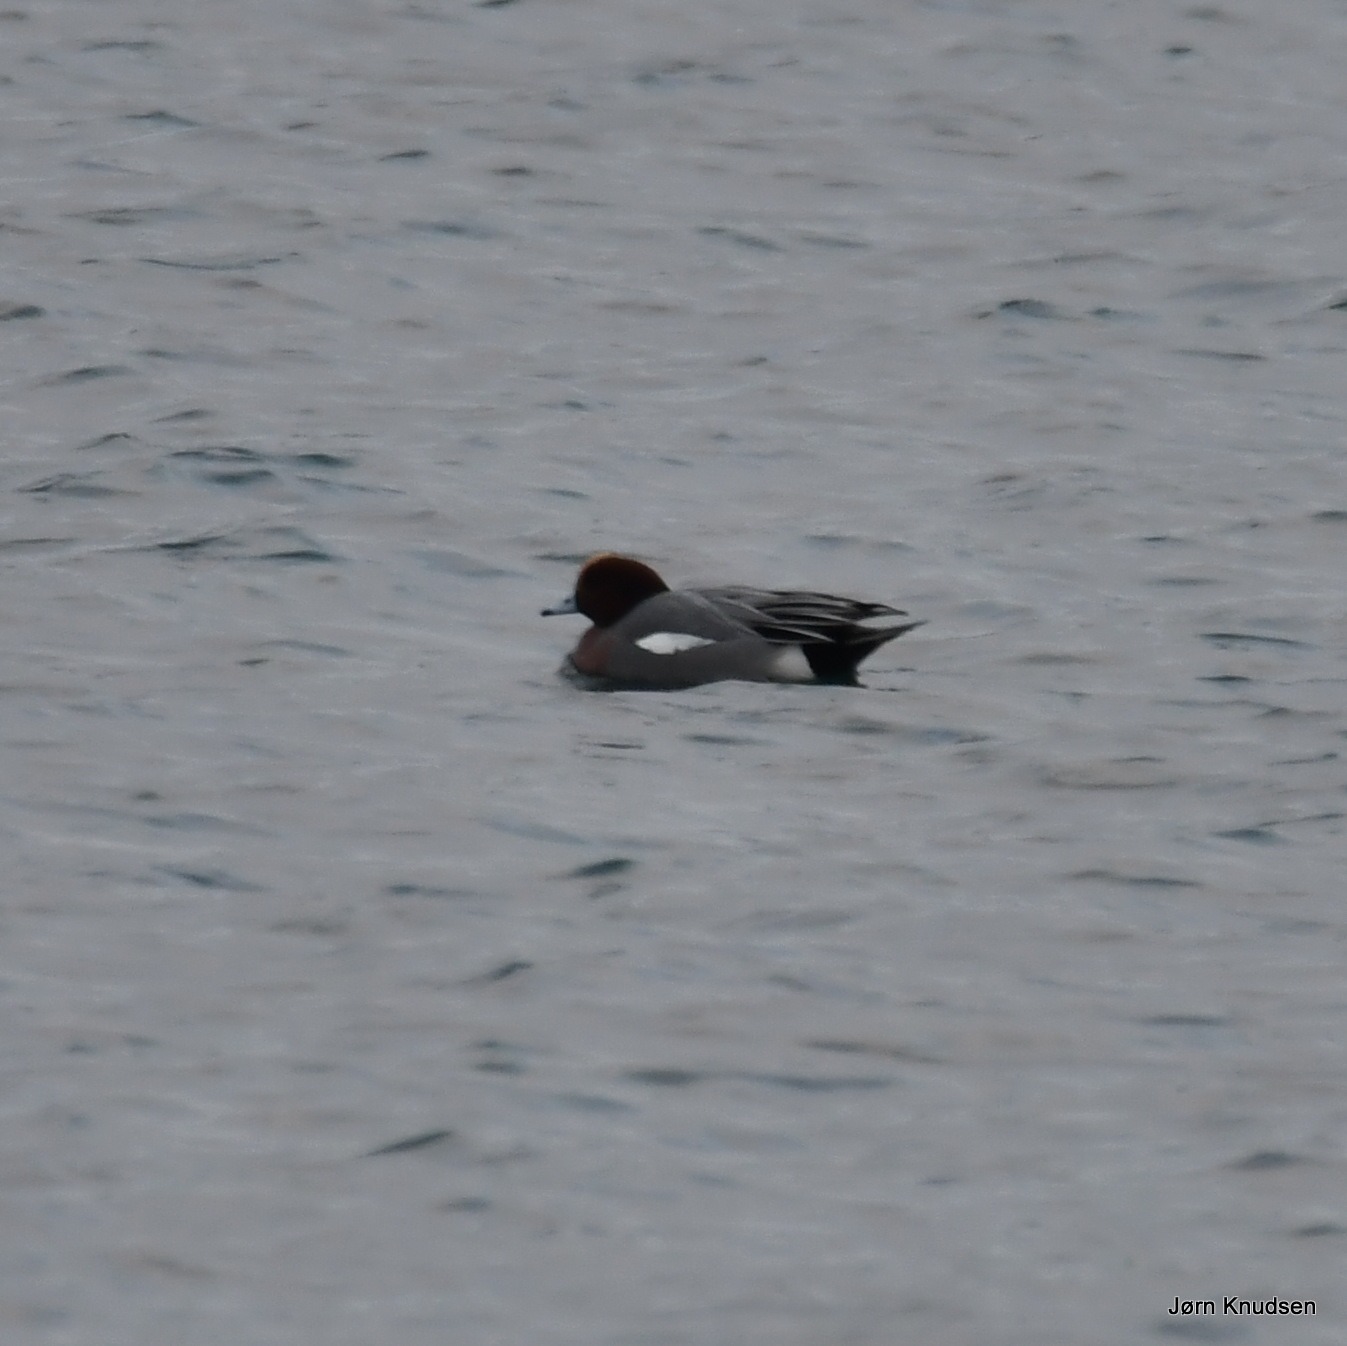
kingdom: Animalia
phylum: Chordata
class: Aves
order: Anseriformes
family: Anatidae
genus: Mareca
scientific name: Mareca penelope
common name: Pibeand
